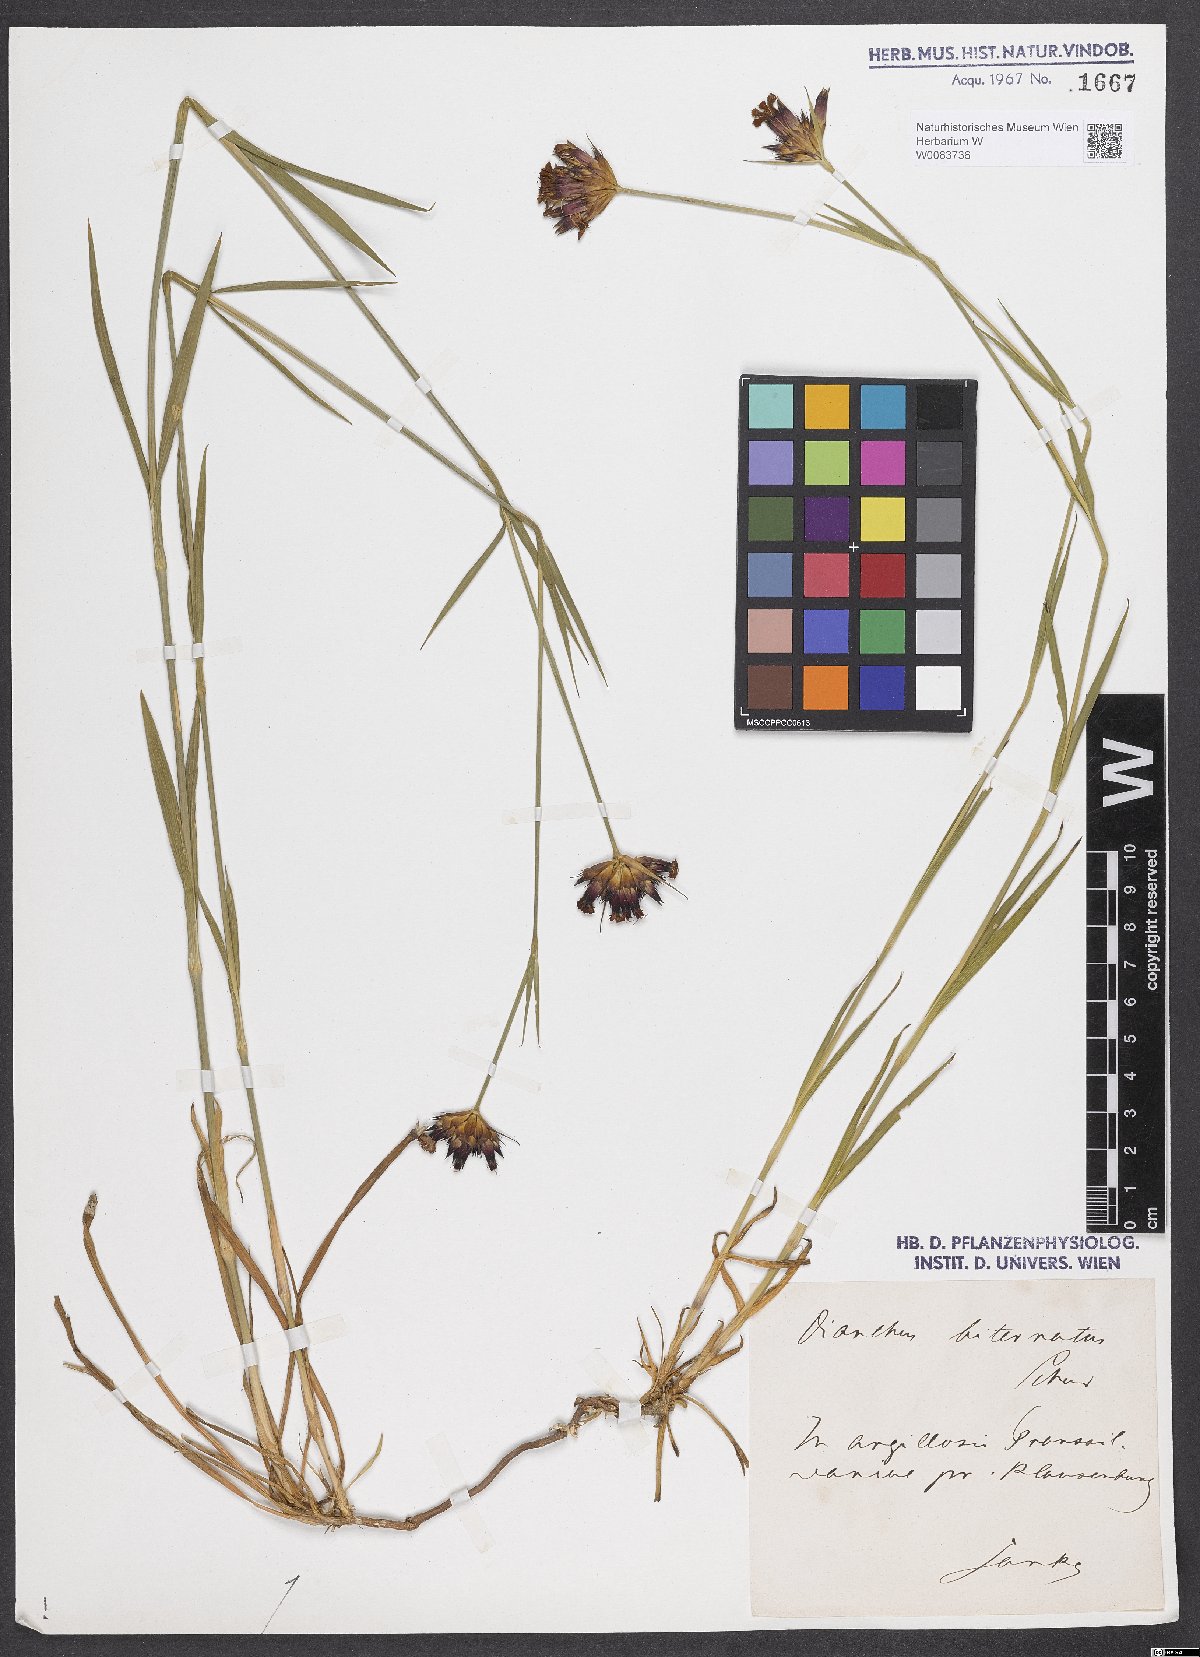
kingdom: Plantae
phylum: Tracheophyta
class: Magnoliopsida
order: Caryophyllales
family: Caryophyllaceae
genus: Dianthus
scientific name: Dianthus giganteus
